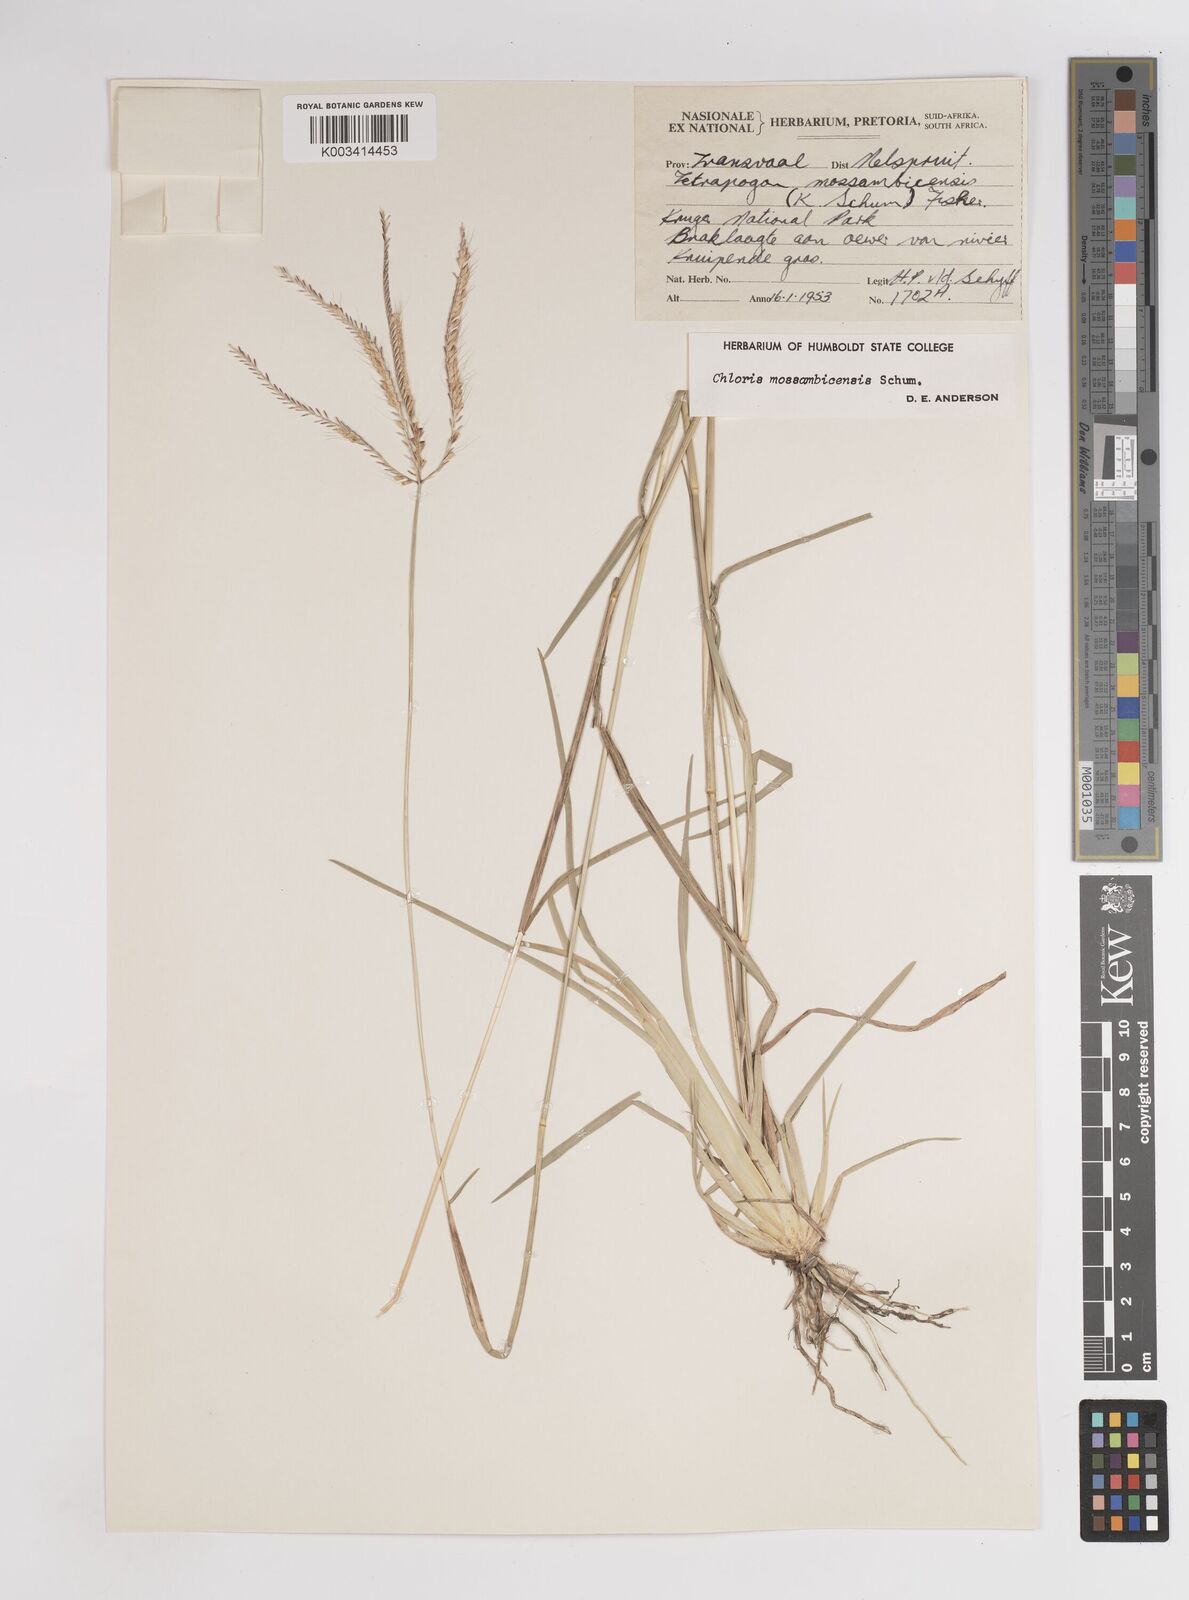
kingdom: Plantae
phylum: Tracheophyta
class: Liliopsida
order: Poales
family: Poaceae
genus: Chloris
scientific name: Chloris mossambicensis
